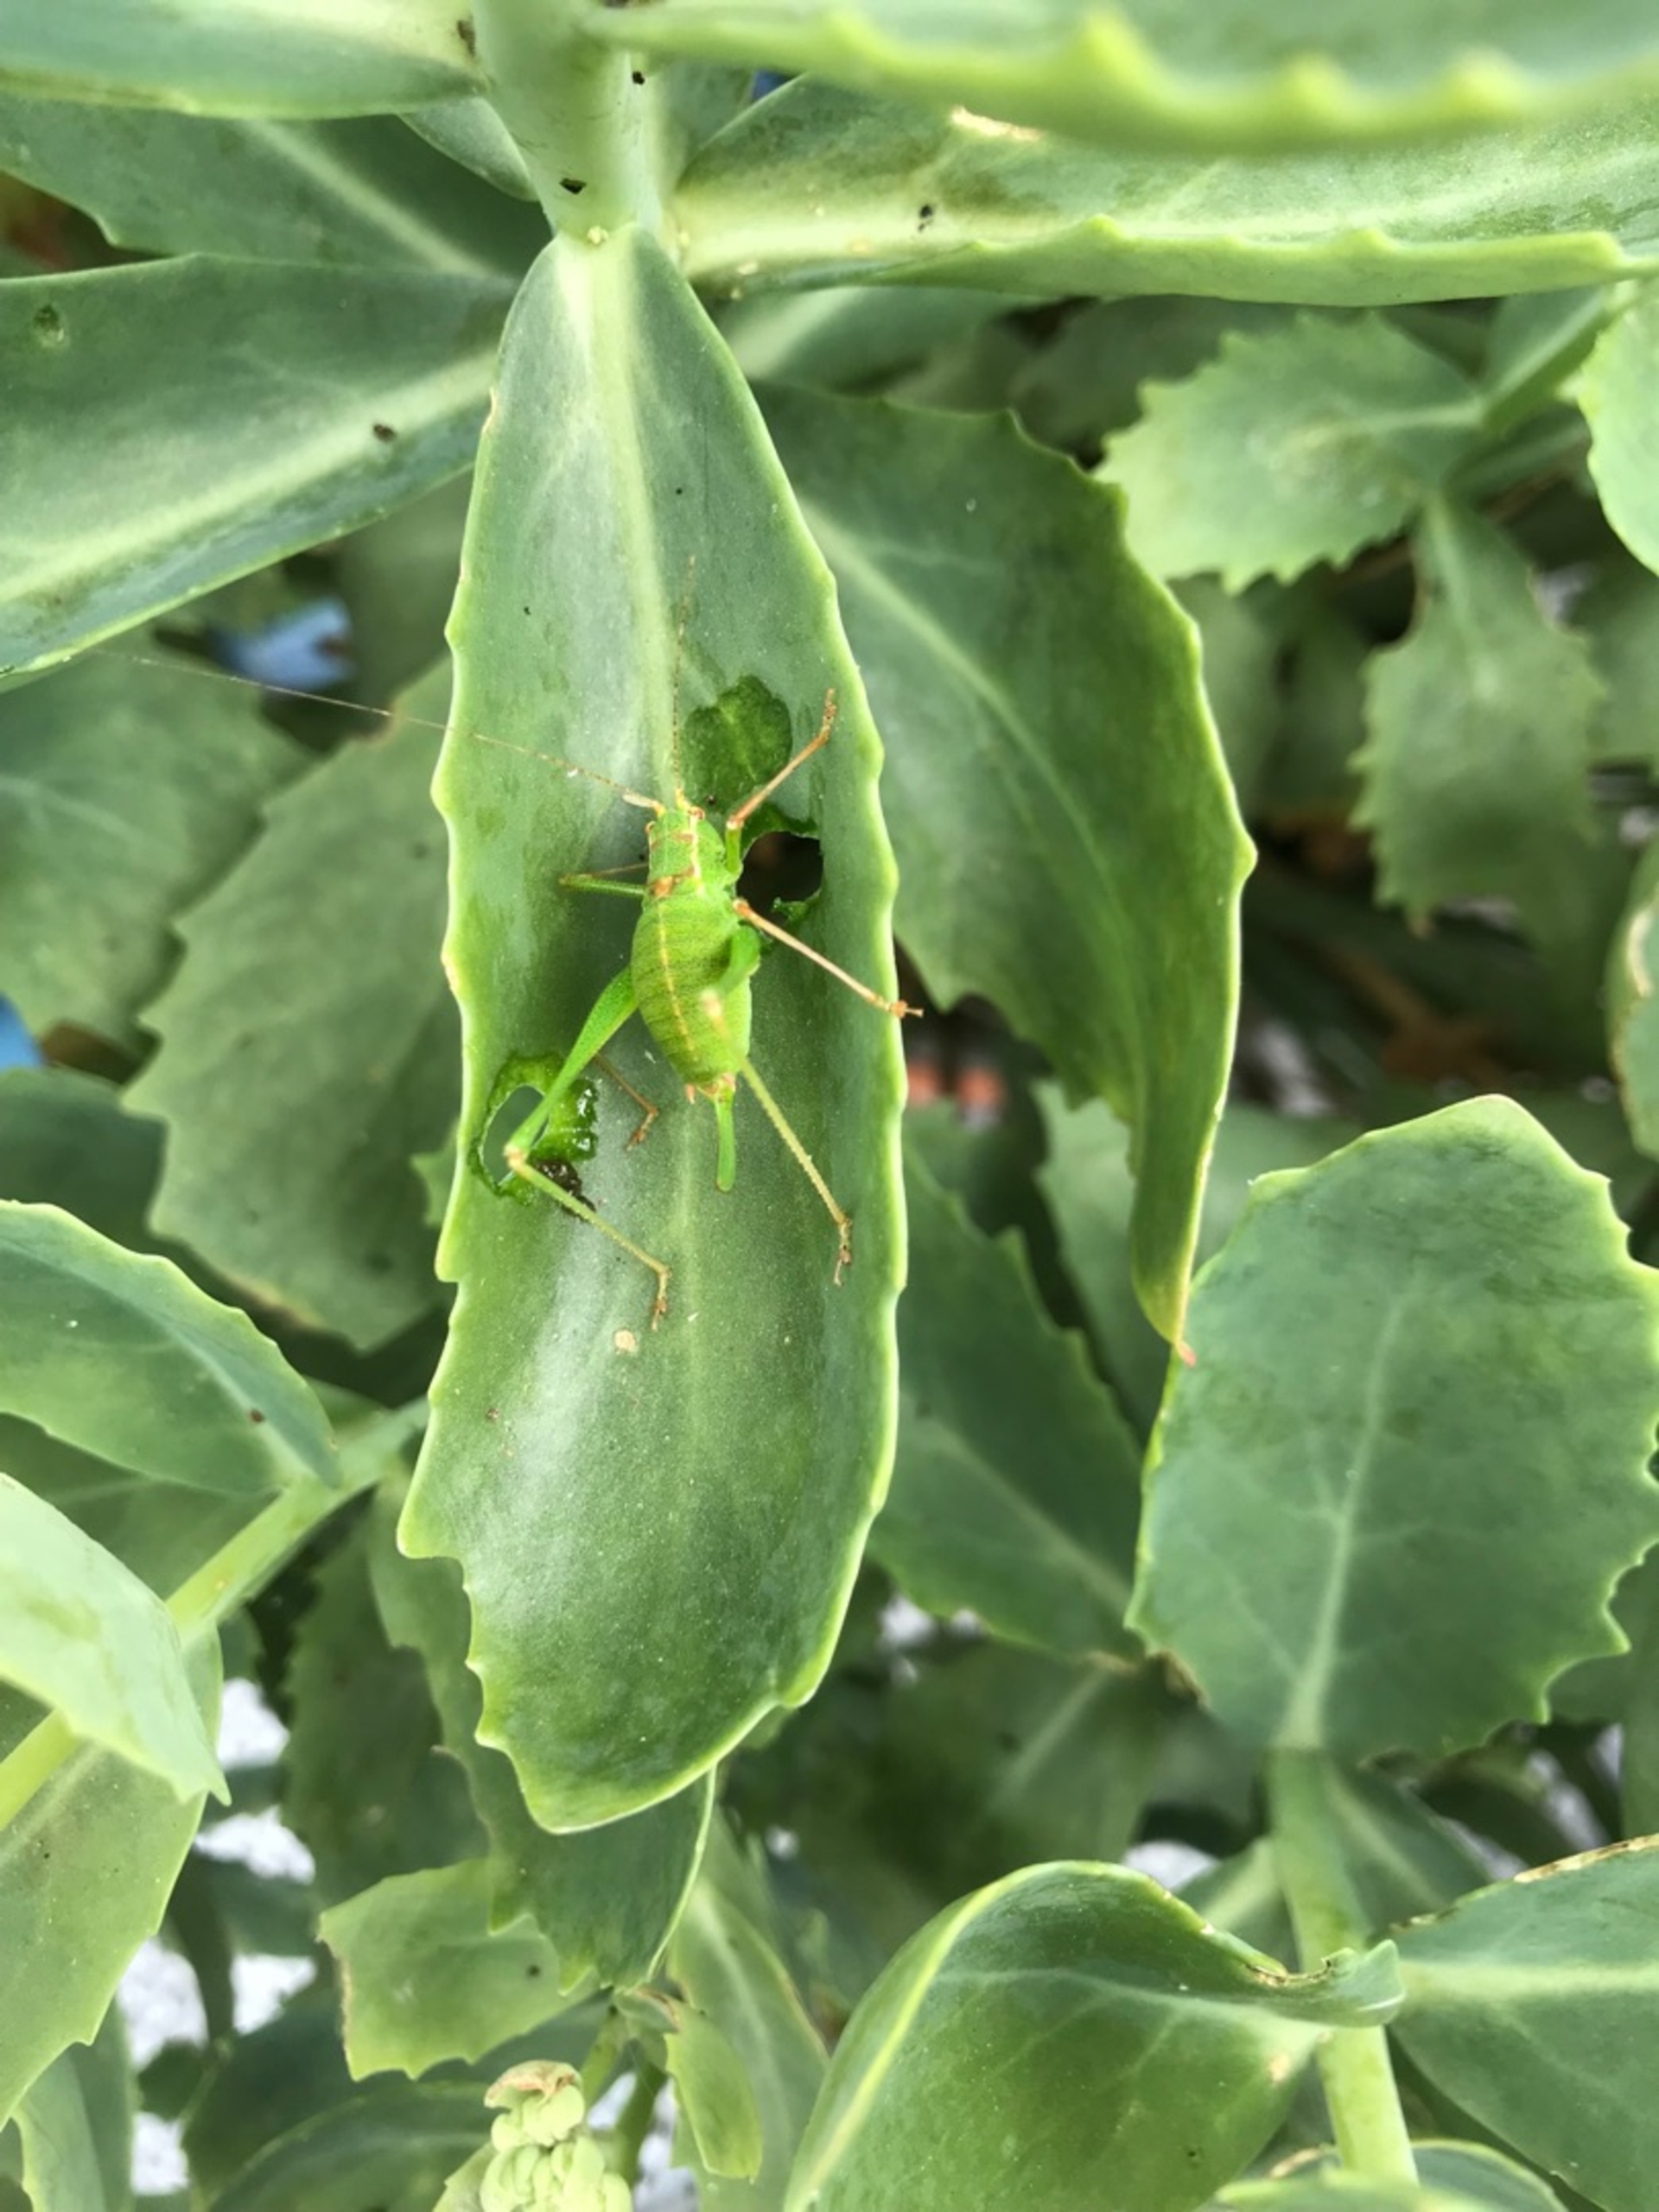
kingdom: Animalia
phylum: Arthropoda
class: Insecta
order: Orthoptera
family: Tettigoniidae
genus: Leptophyes
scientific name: Leptophyes punctatissima
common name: Krumknivgræshoppe
